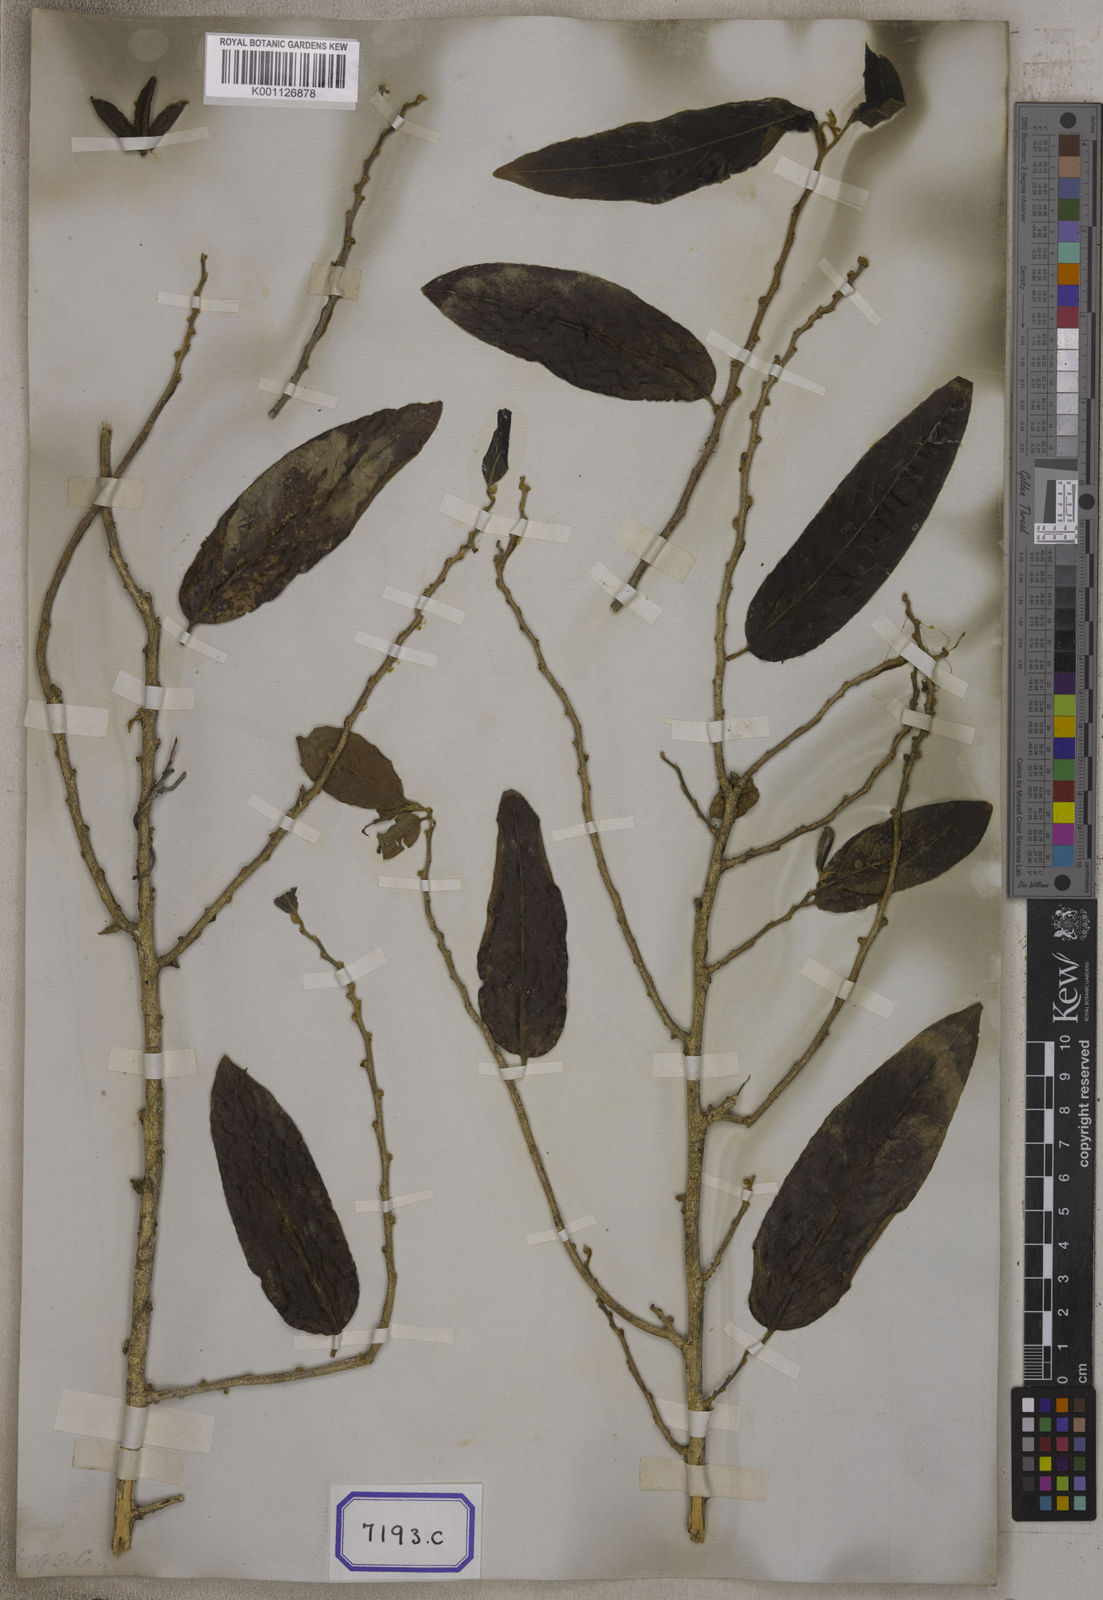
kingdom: Plantae
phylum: Tracheophyta
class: Magnoliopsida
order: Malpighiales
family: Salicaceae
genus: Casearia
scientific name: Casearia tomentosa
